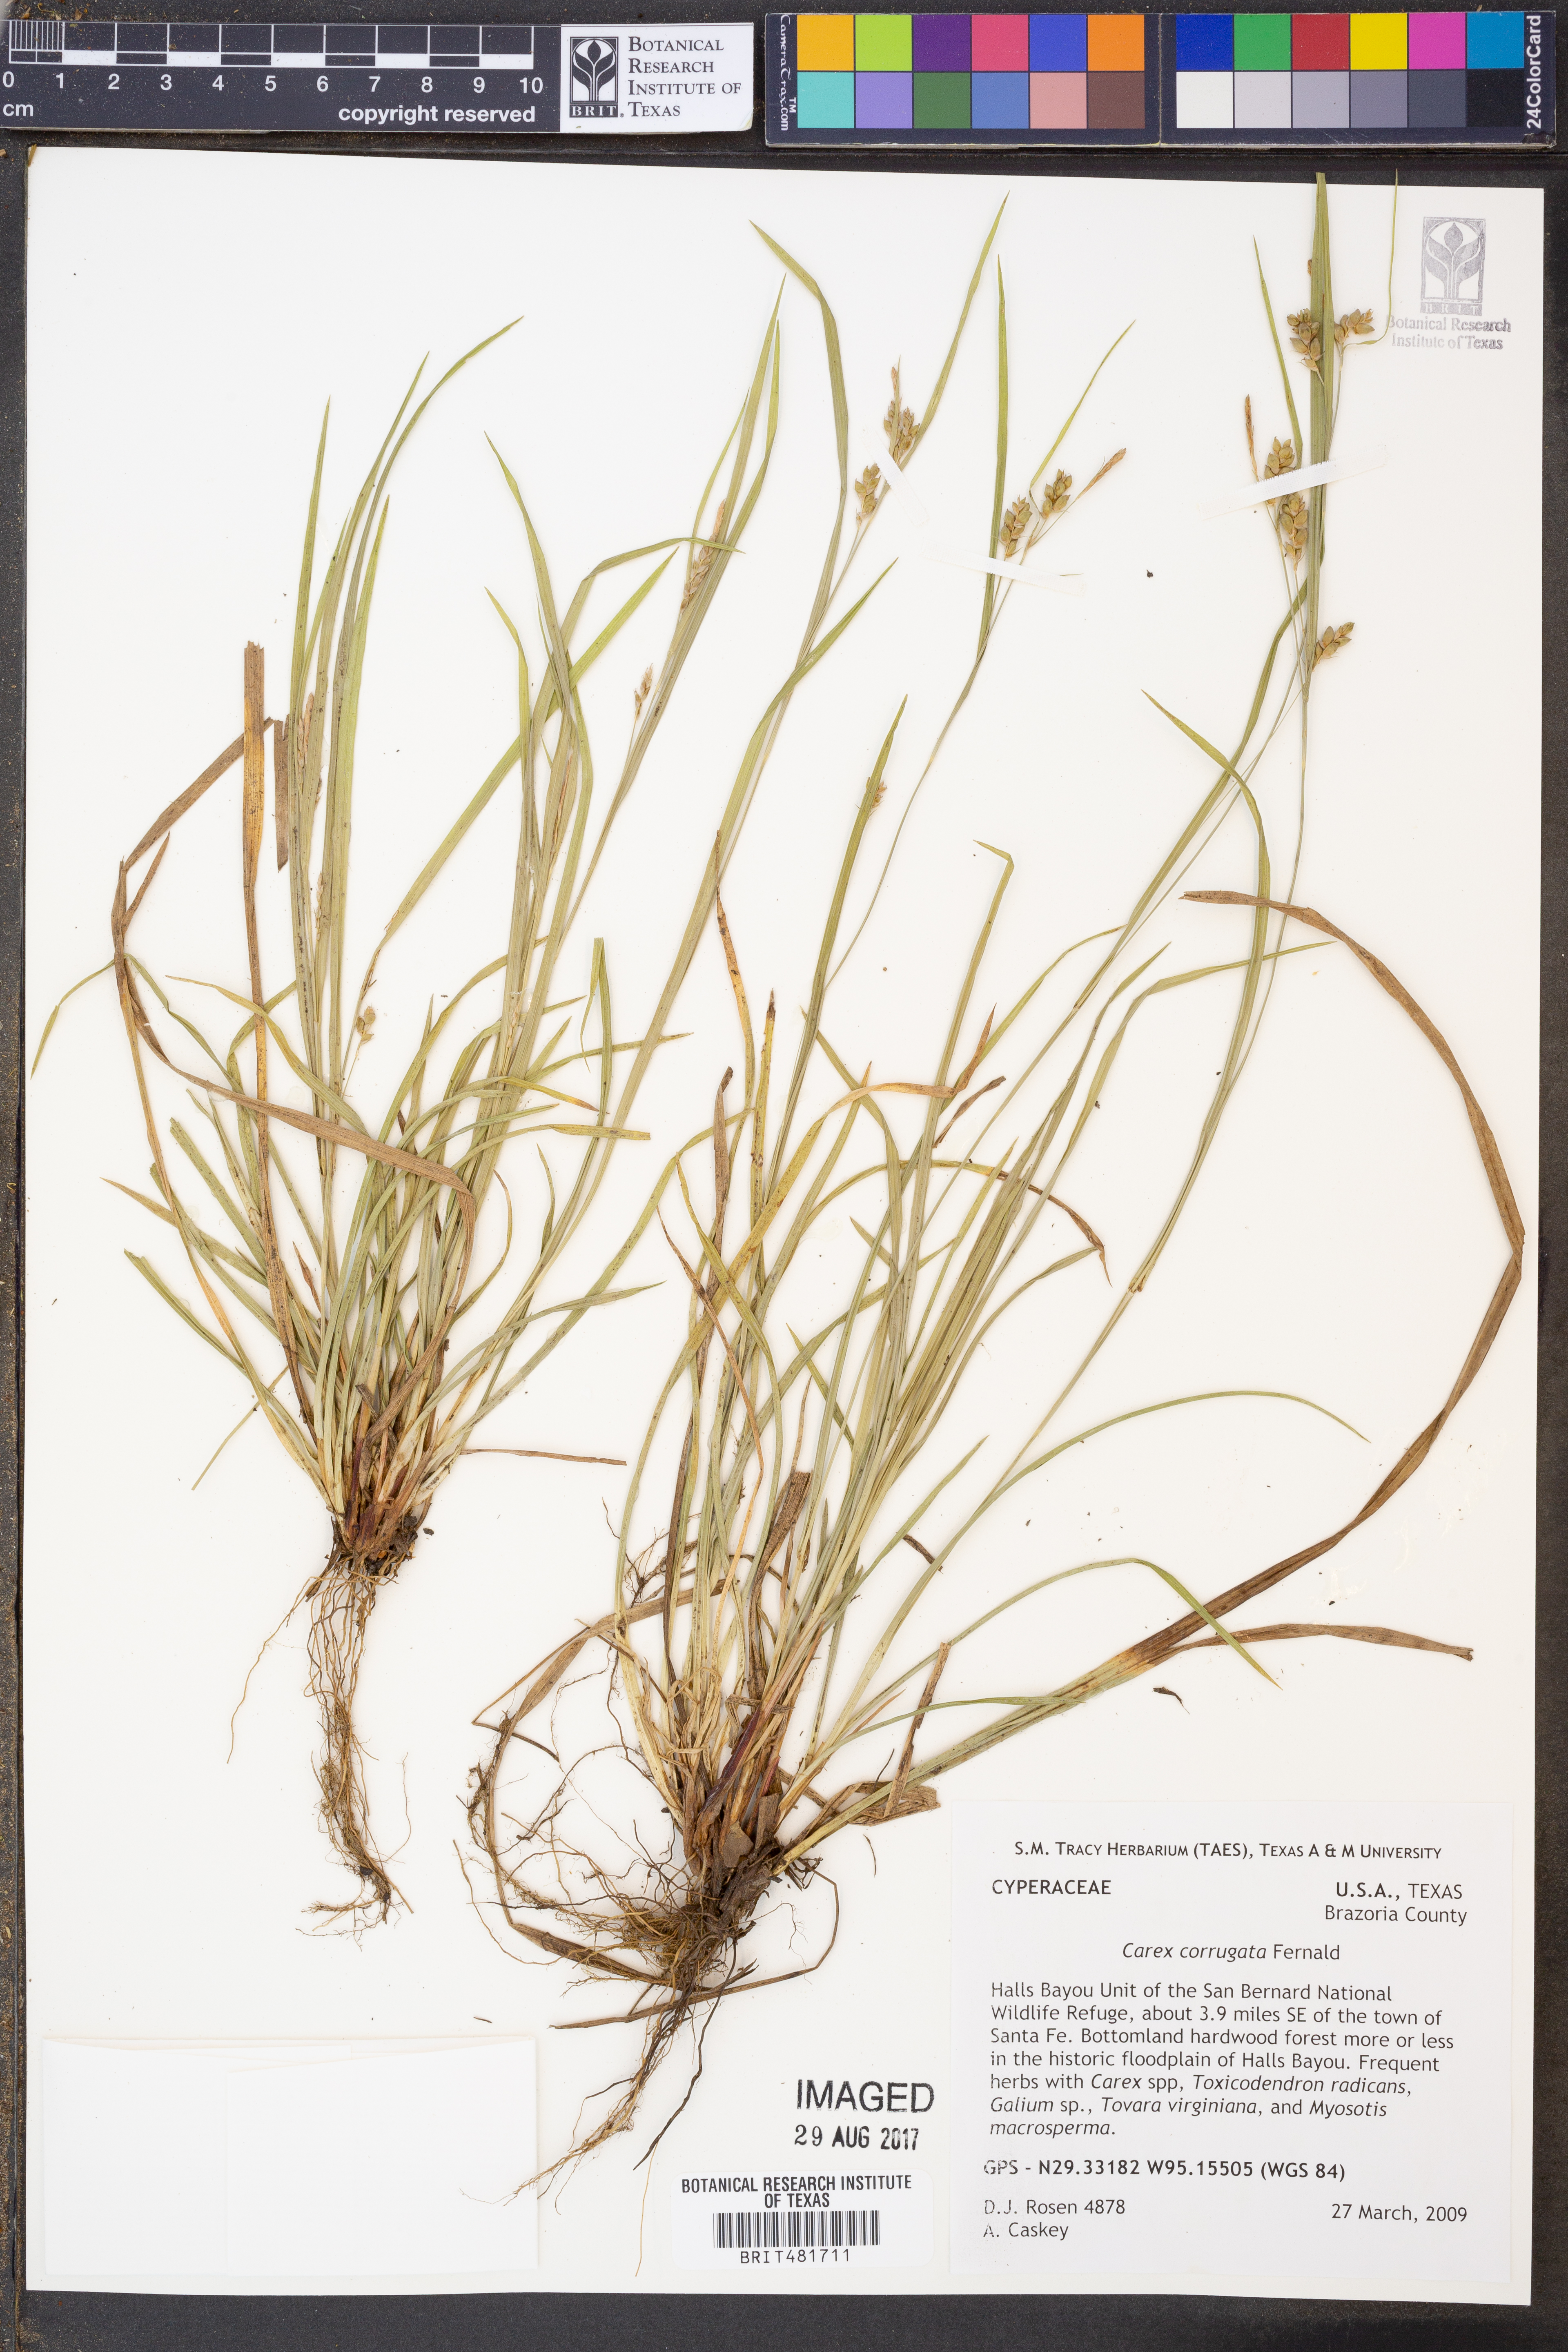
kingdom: Plantae
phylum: Tracheophyta
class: Liliopsida
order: Poales
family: Cyperaceae
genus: Carex
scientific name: Carex corrugata
